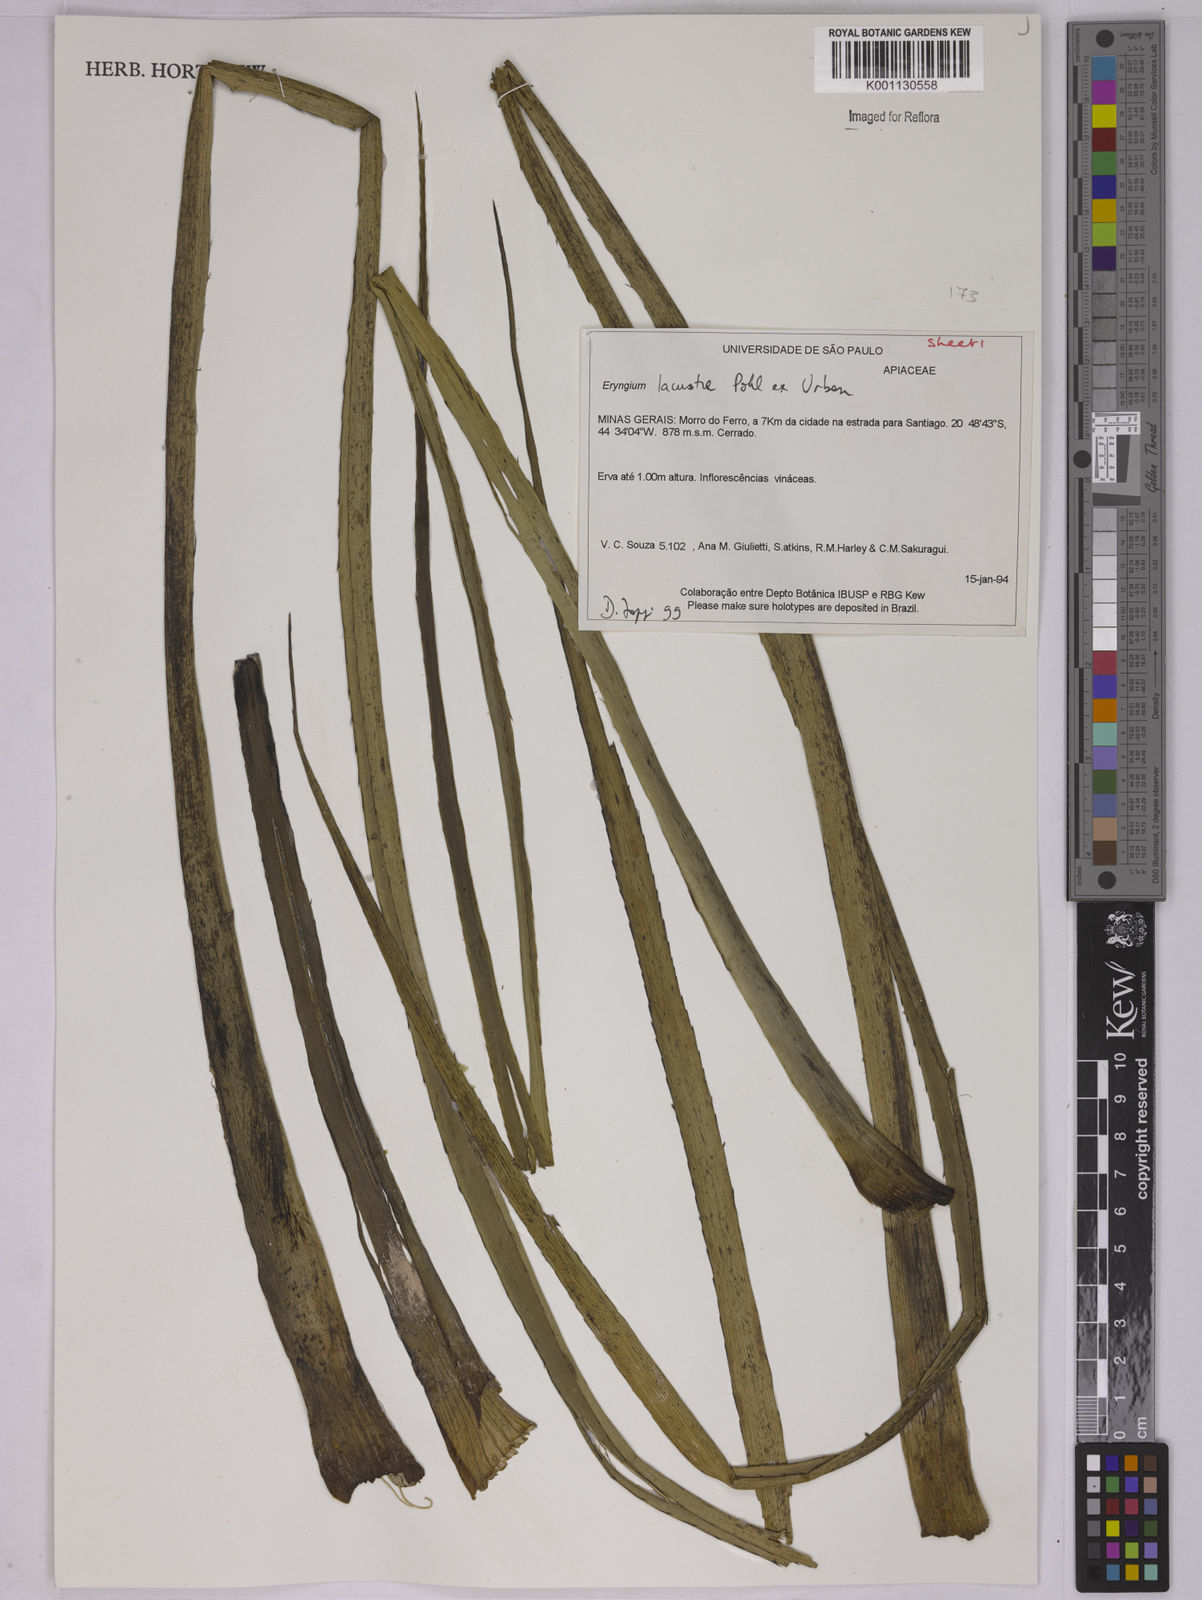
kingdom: Plantae
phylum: Tracheophyta
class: Magnoliopsida
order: Apiales
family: Apiaceae
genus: Eryngium
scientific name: Eryngium lacustre
